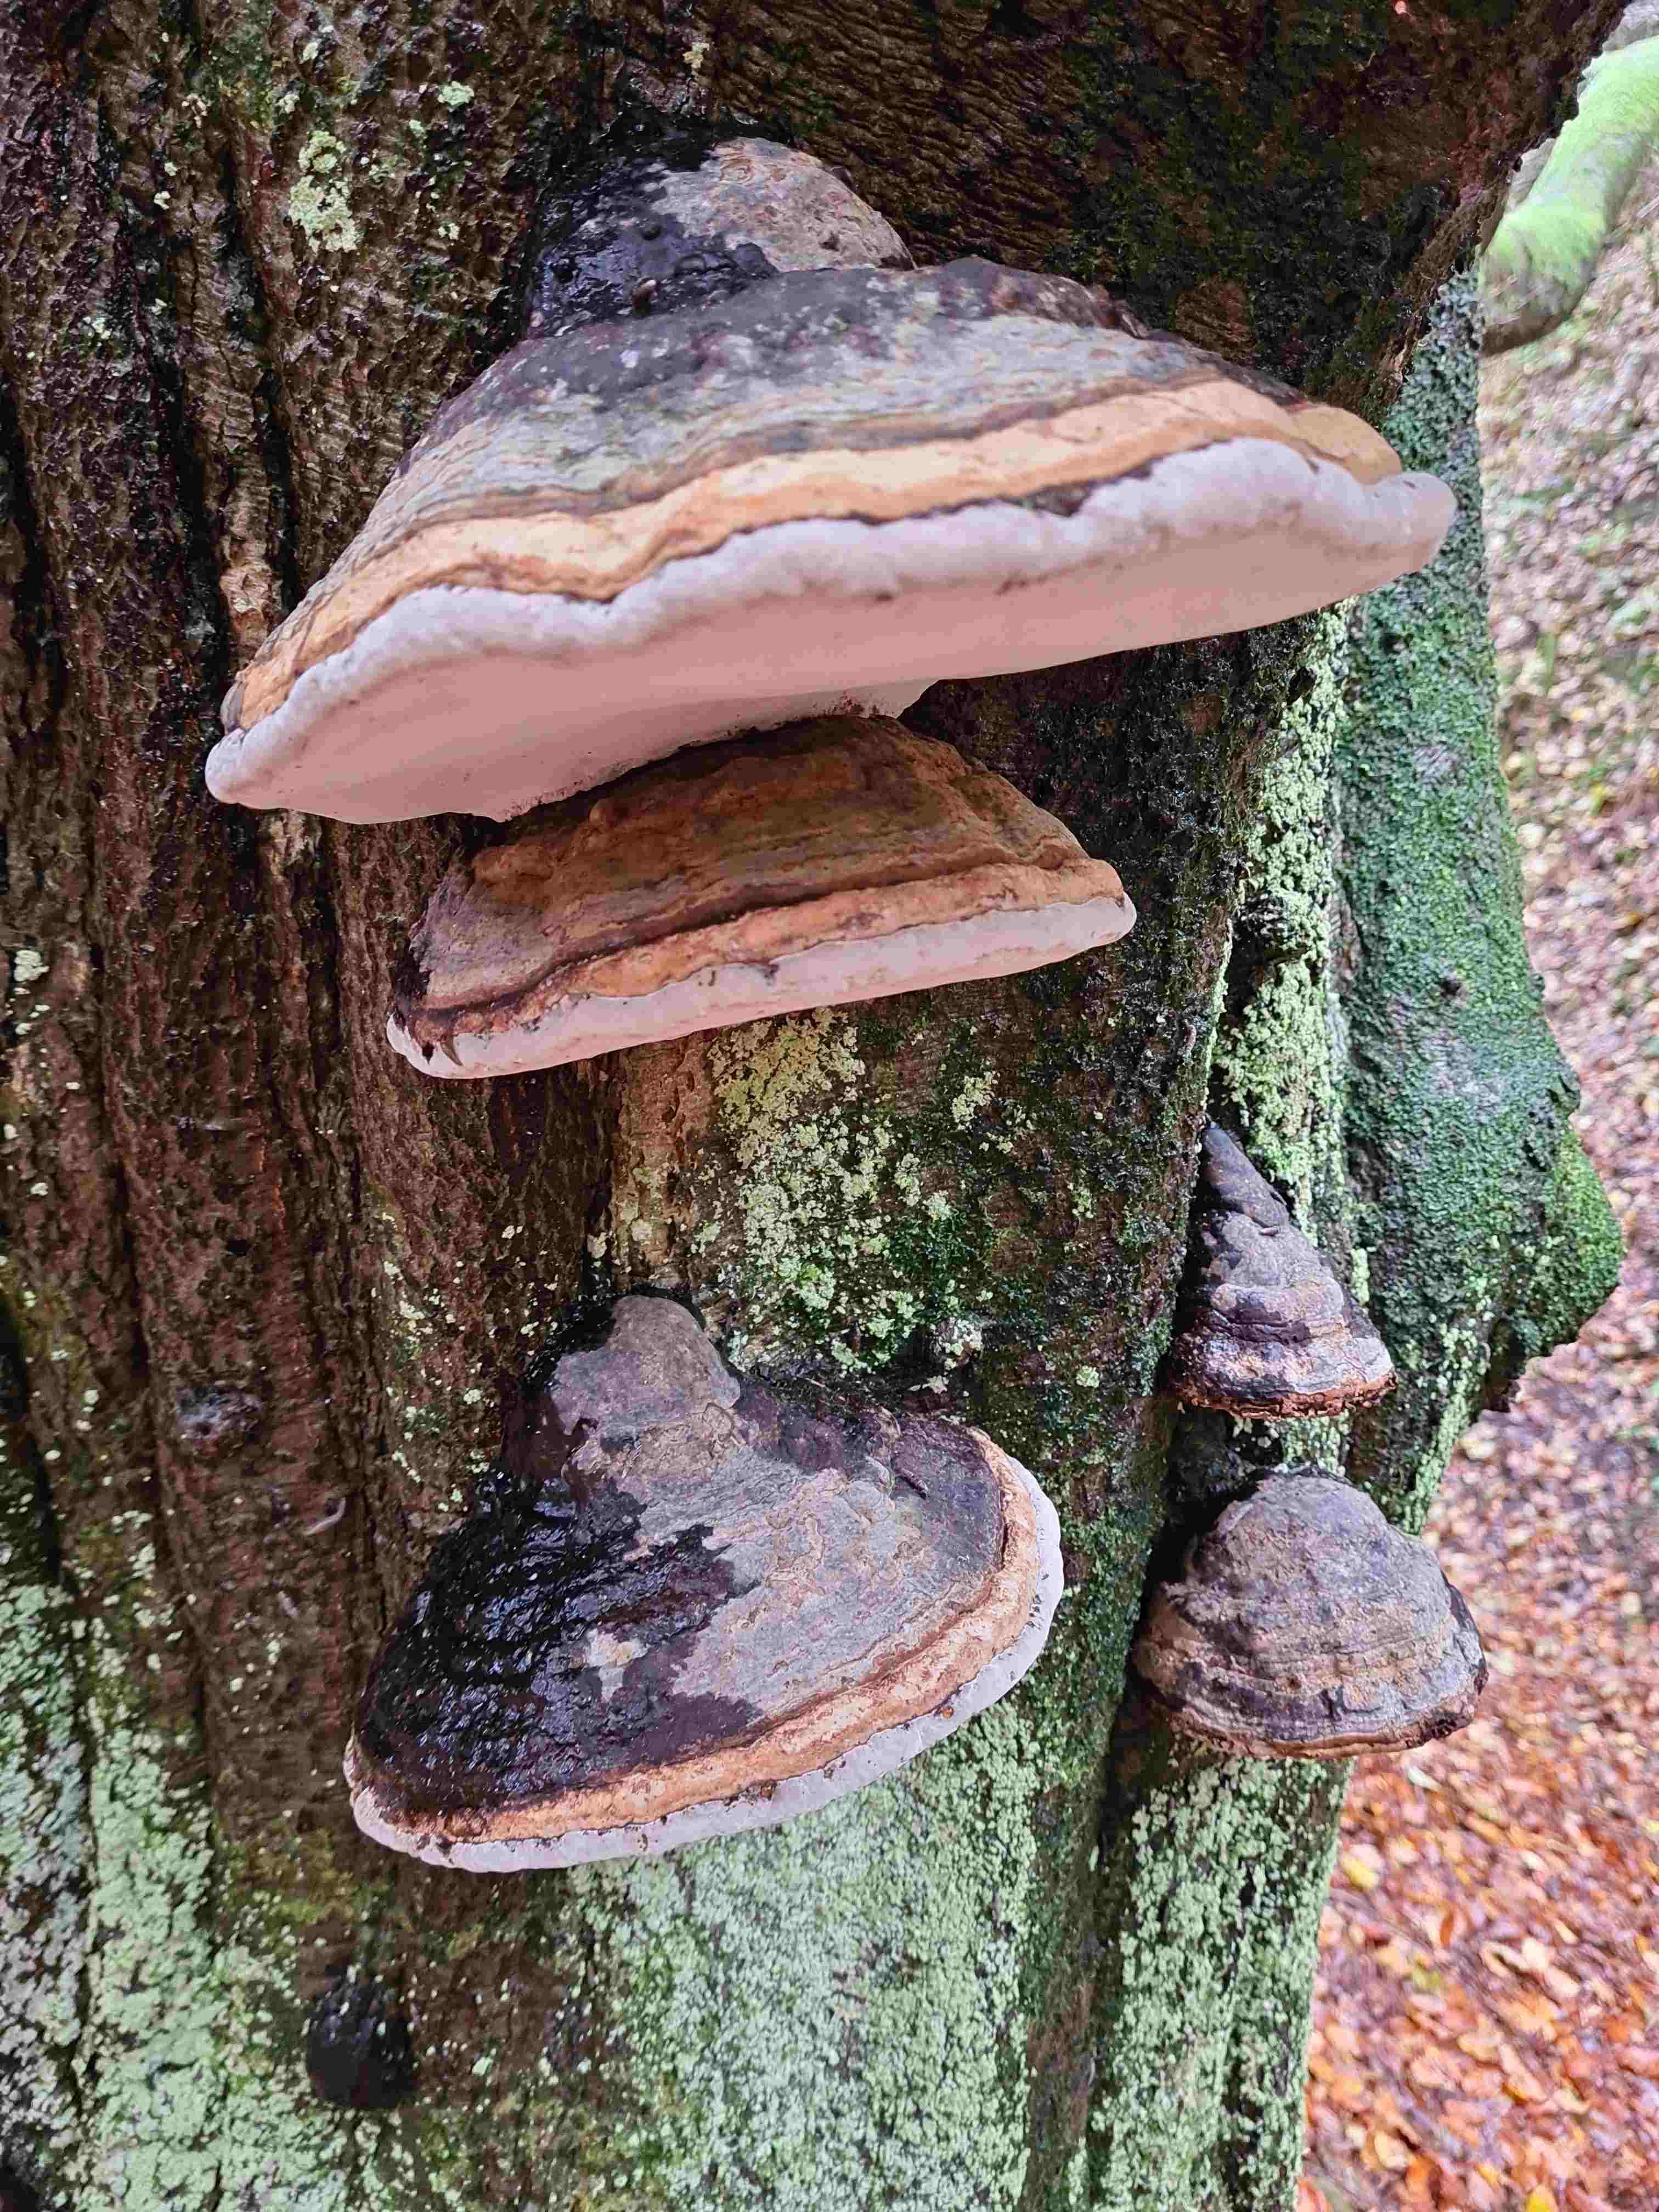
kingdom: Fungi
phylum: Basidiomycota
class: Agaricomycetes
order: Polyporales
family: Polyporaceae
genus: Fomes
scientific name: Fomes fomentarius
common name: tøndersvamp
